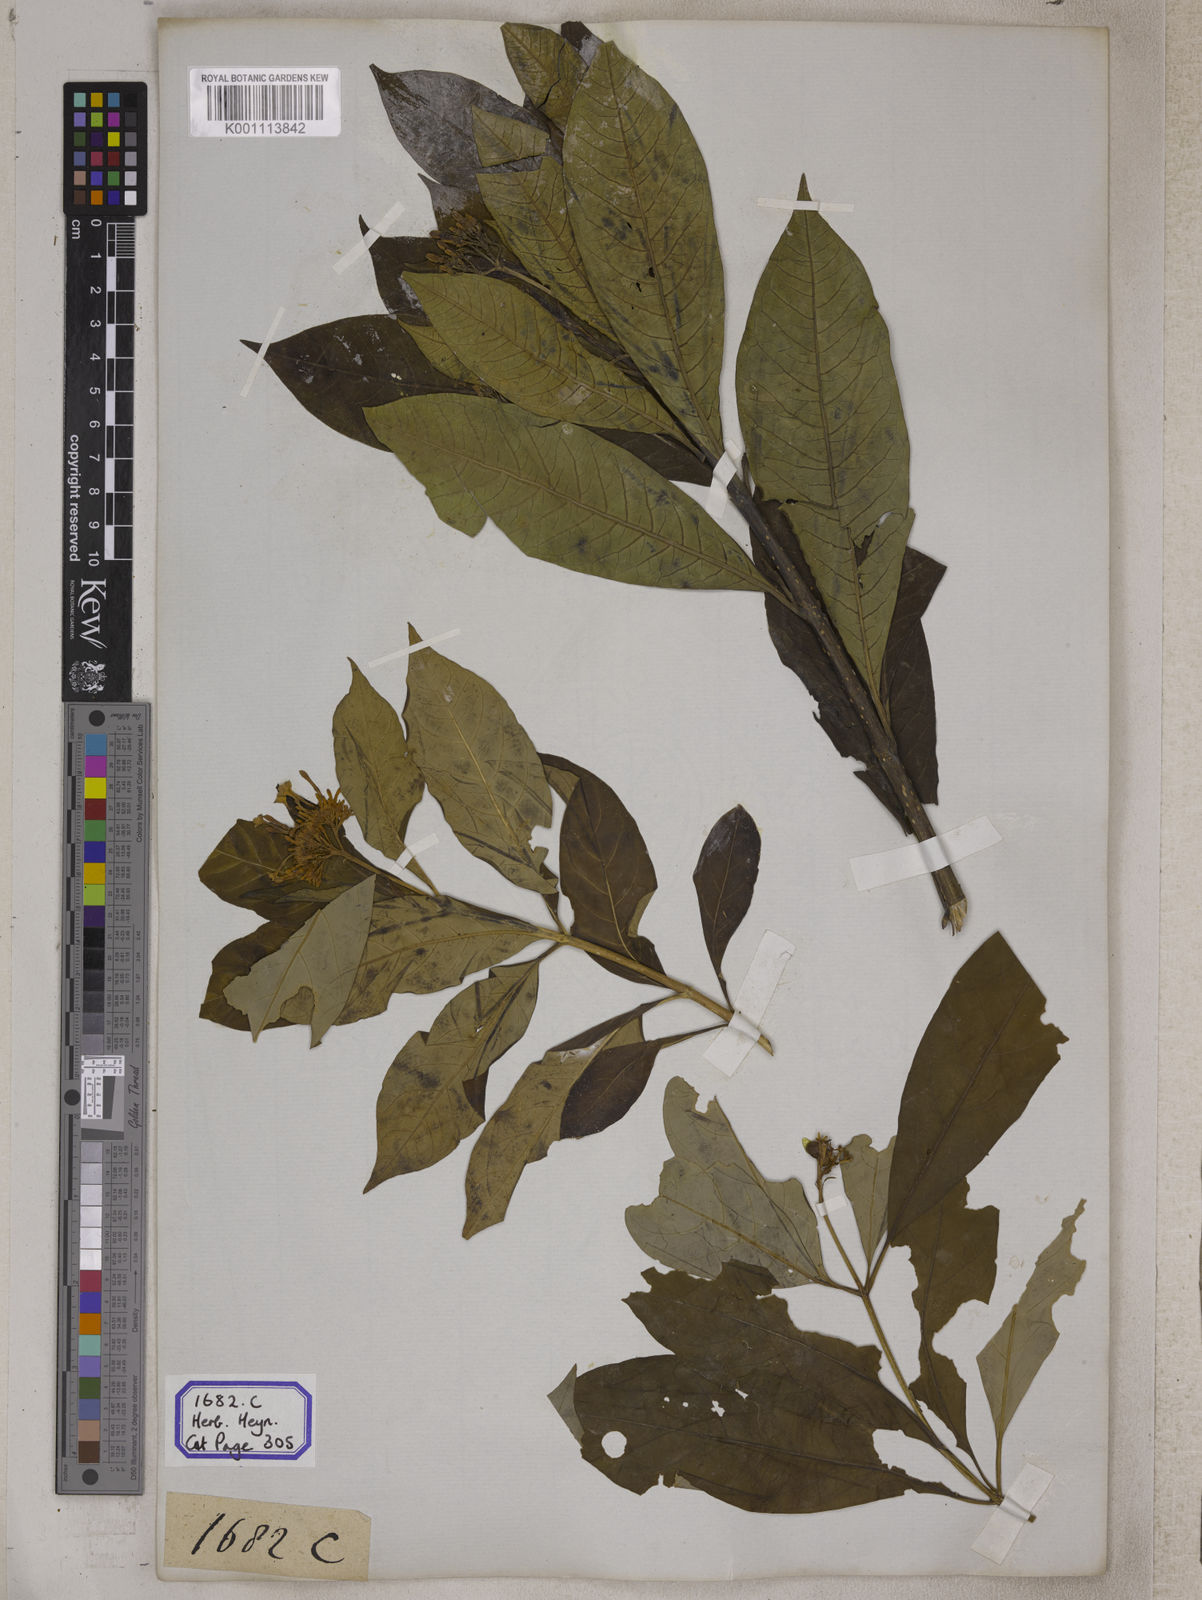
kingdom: Plantae
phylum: Tracheophyta
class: Magnoliopsida
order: Gentianales
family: Apocynaceae
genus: Rauvolfia
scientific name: Rauvolfia serpentina
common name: Ajmaline
